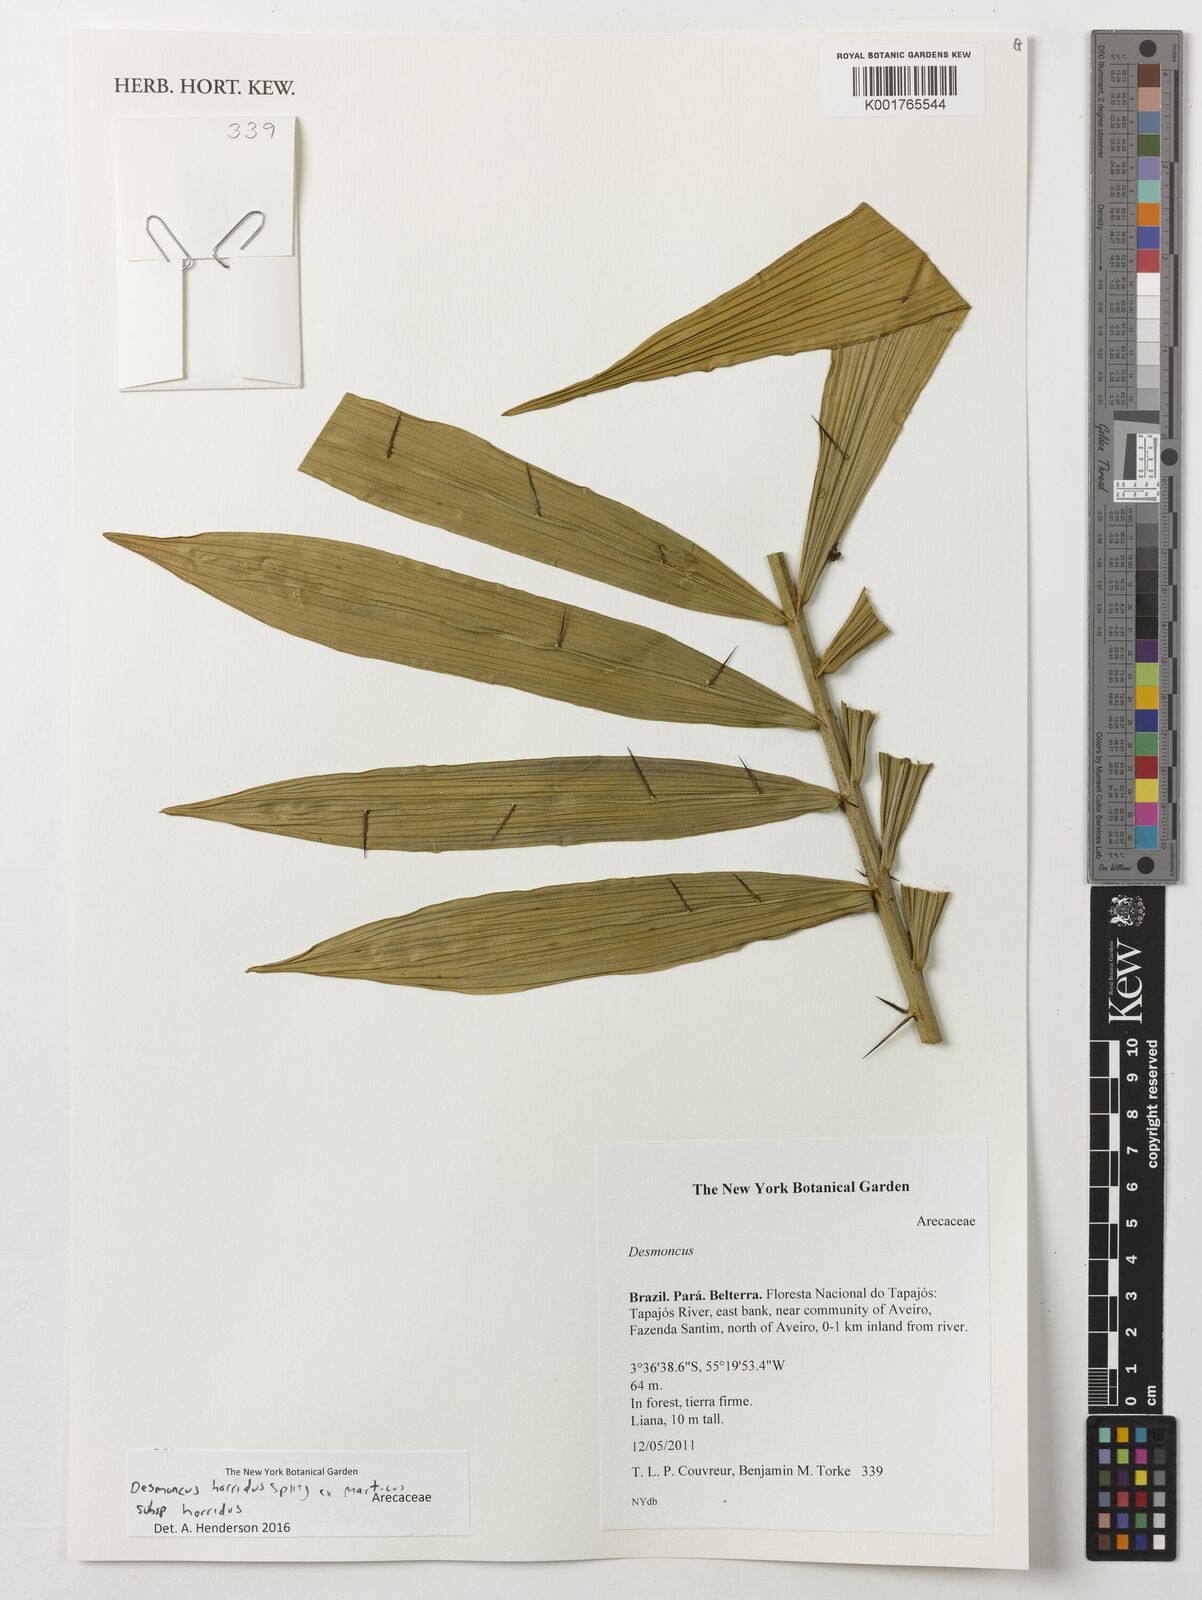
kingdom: Plantae
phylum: Tracheophyta
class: Liliopsida
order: Arecales
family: Arecaceae
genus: Desmoncus
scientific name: Desmoncus horridus
